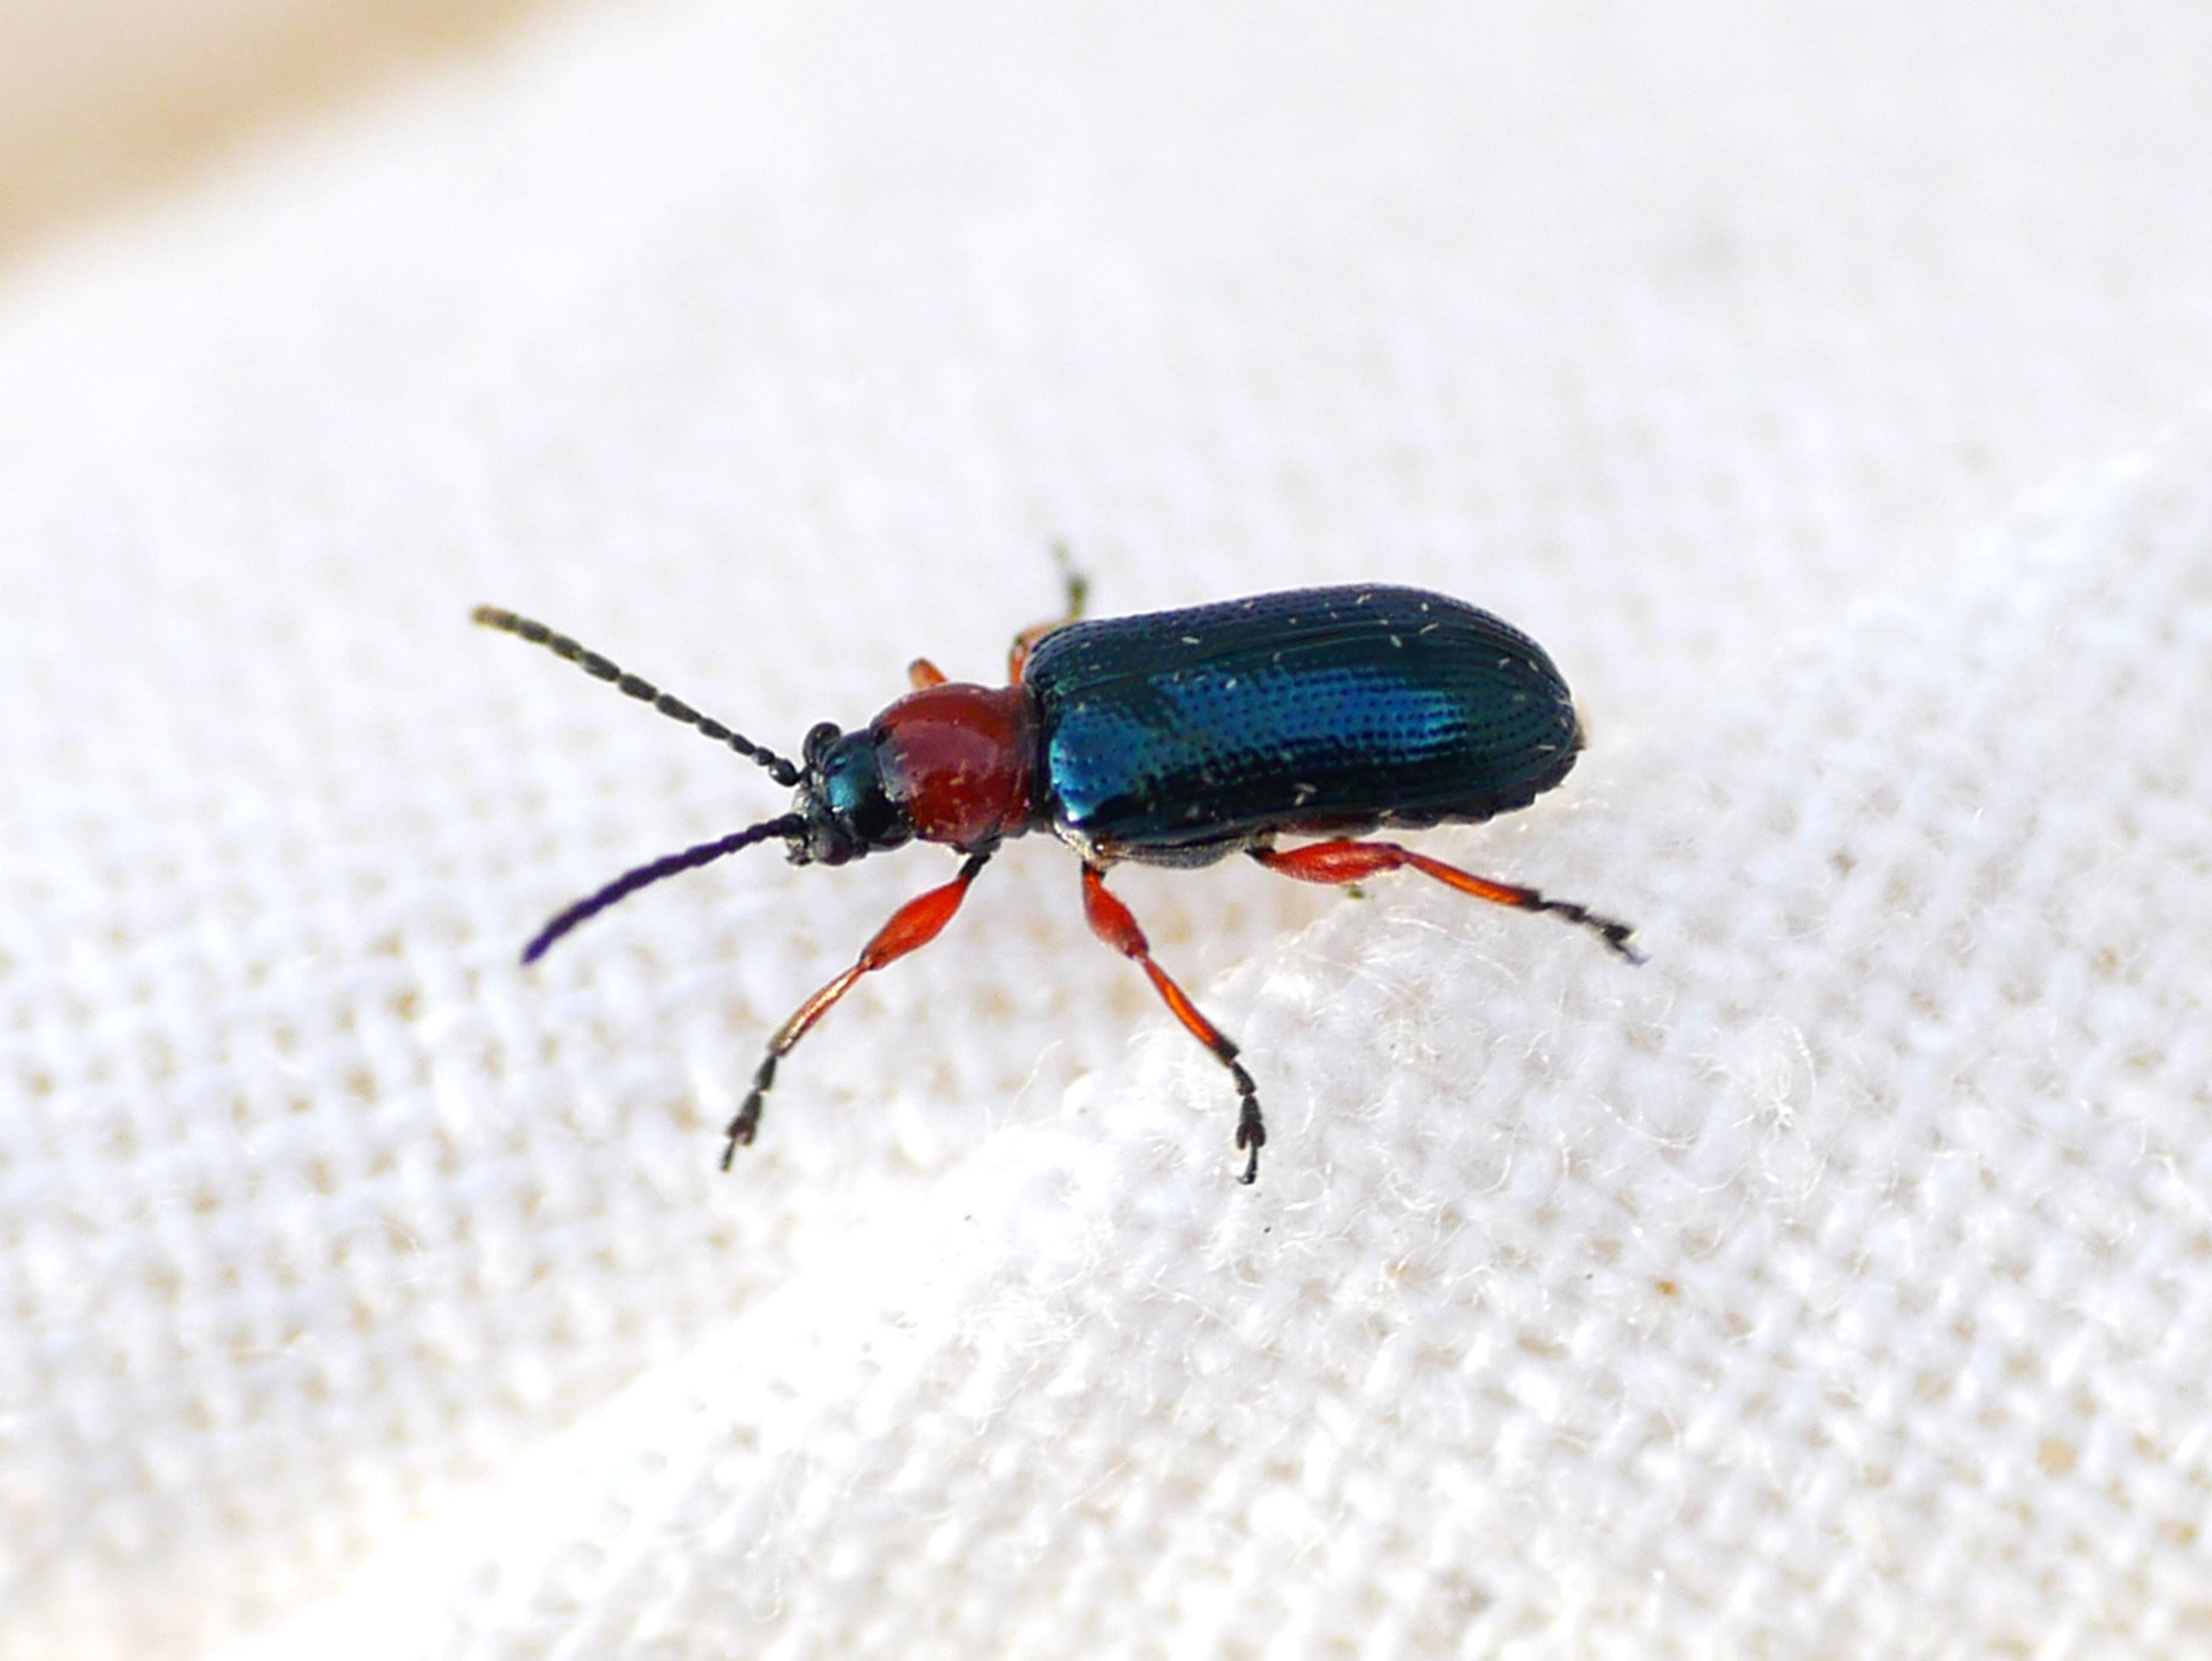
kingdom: Animalia
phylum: Arthropoda
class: Insecta
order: Coleoptera
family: Chrysomelidae
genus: Oulema
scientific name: Oulema
